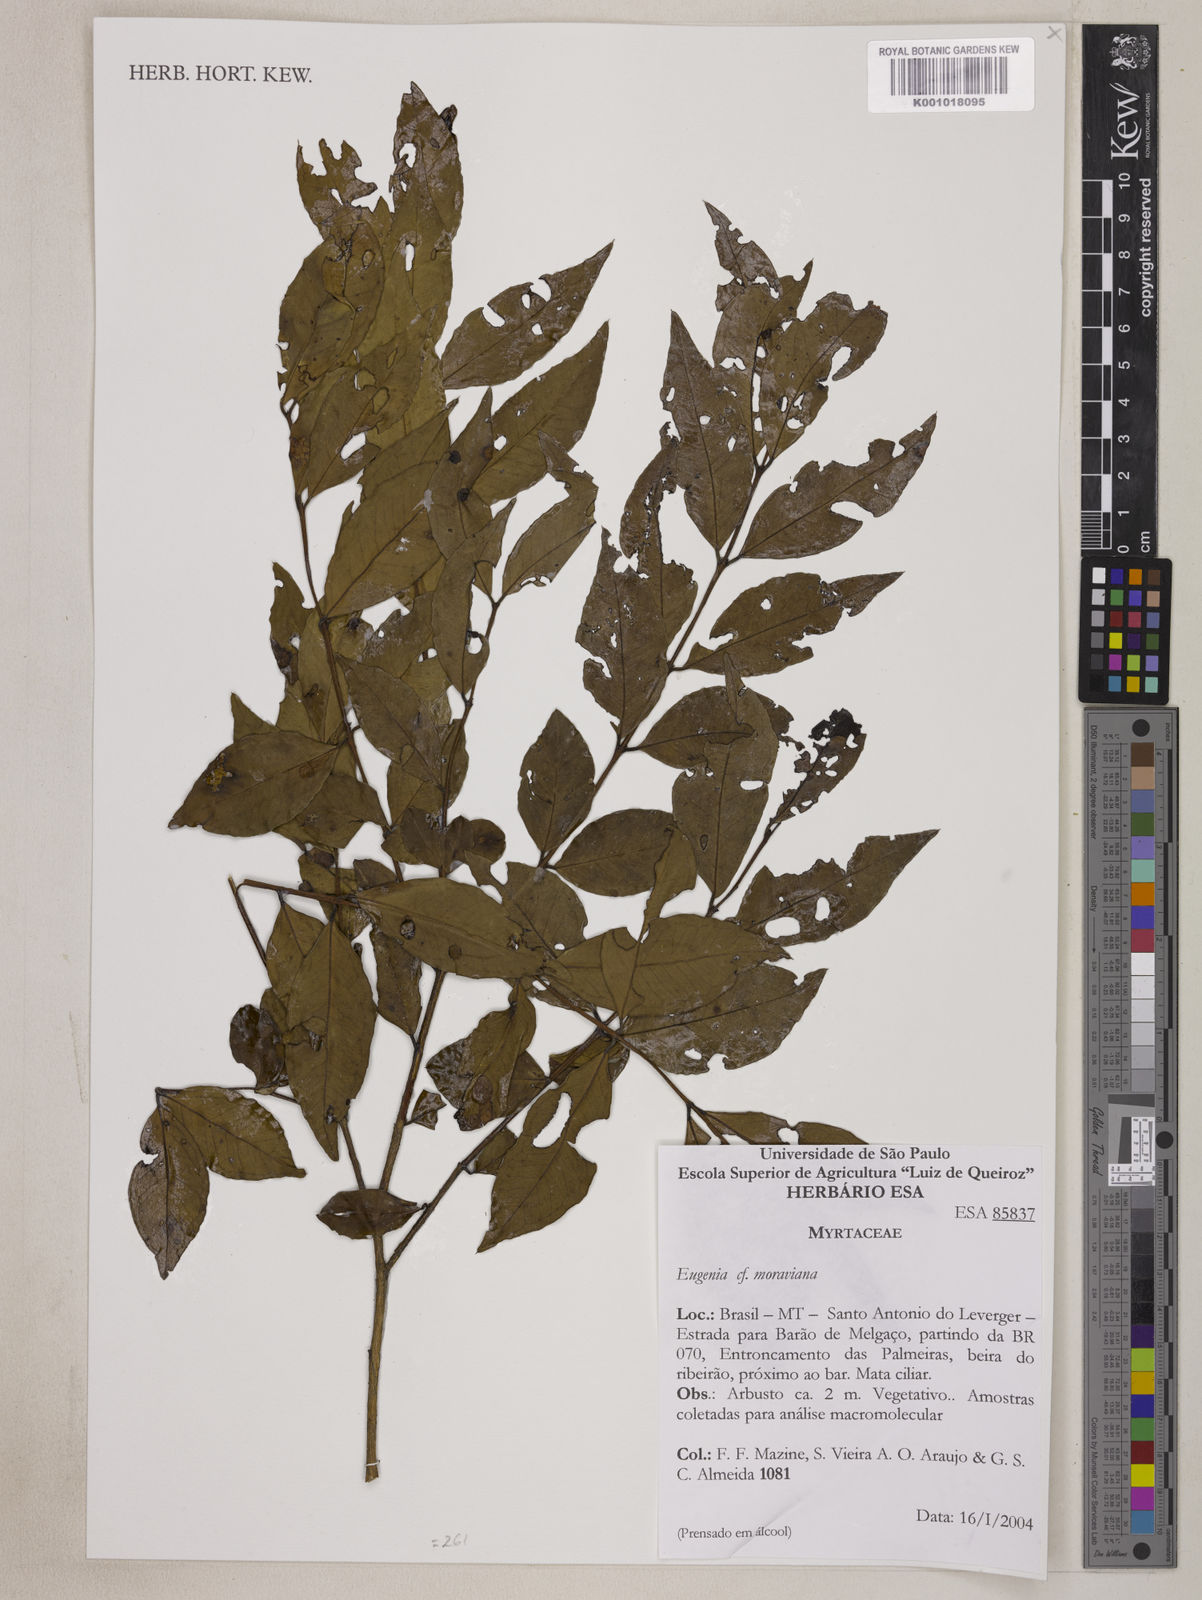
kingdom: Plantae
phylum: Tracheophyta
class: Magnoliopsida
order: Myrtales
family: Myrtaceae
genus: Eugenia
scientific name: Eugenia modesta
